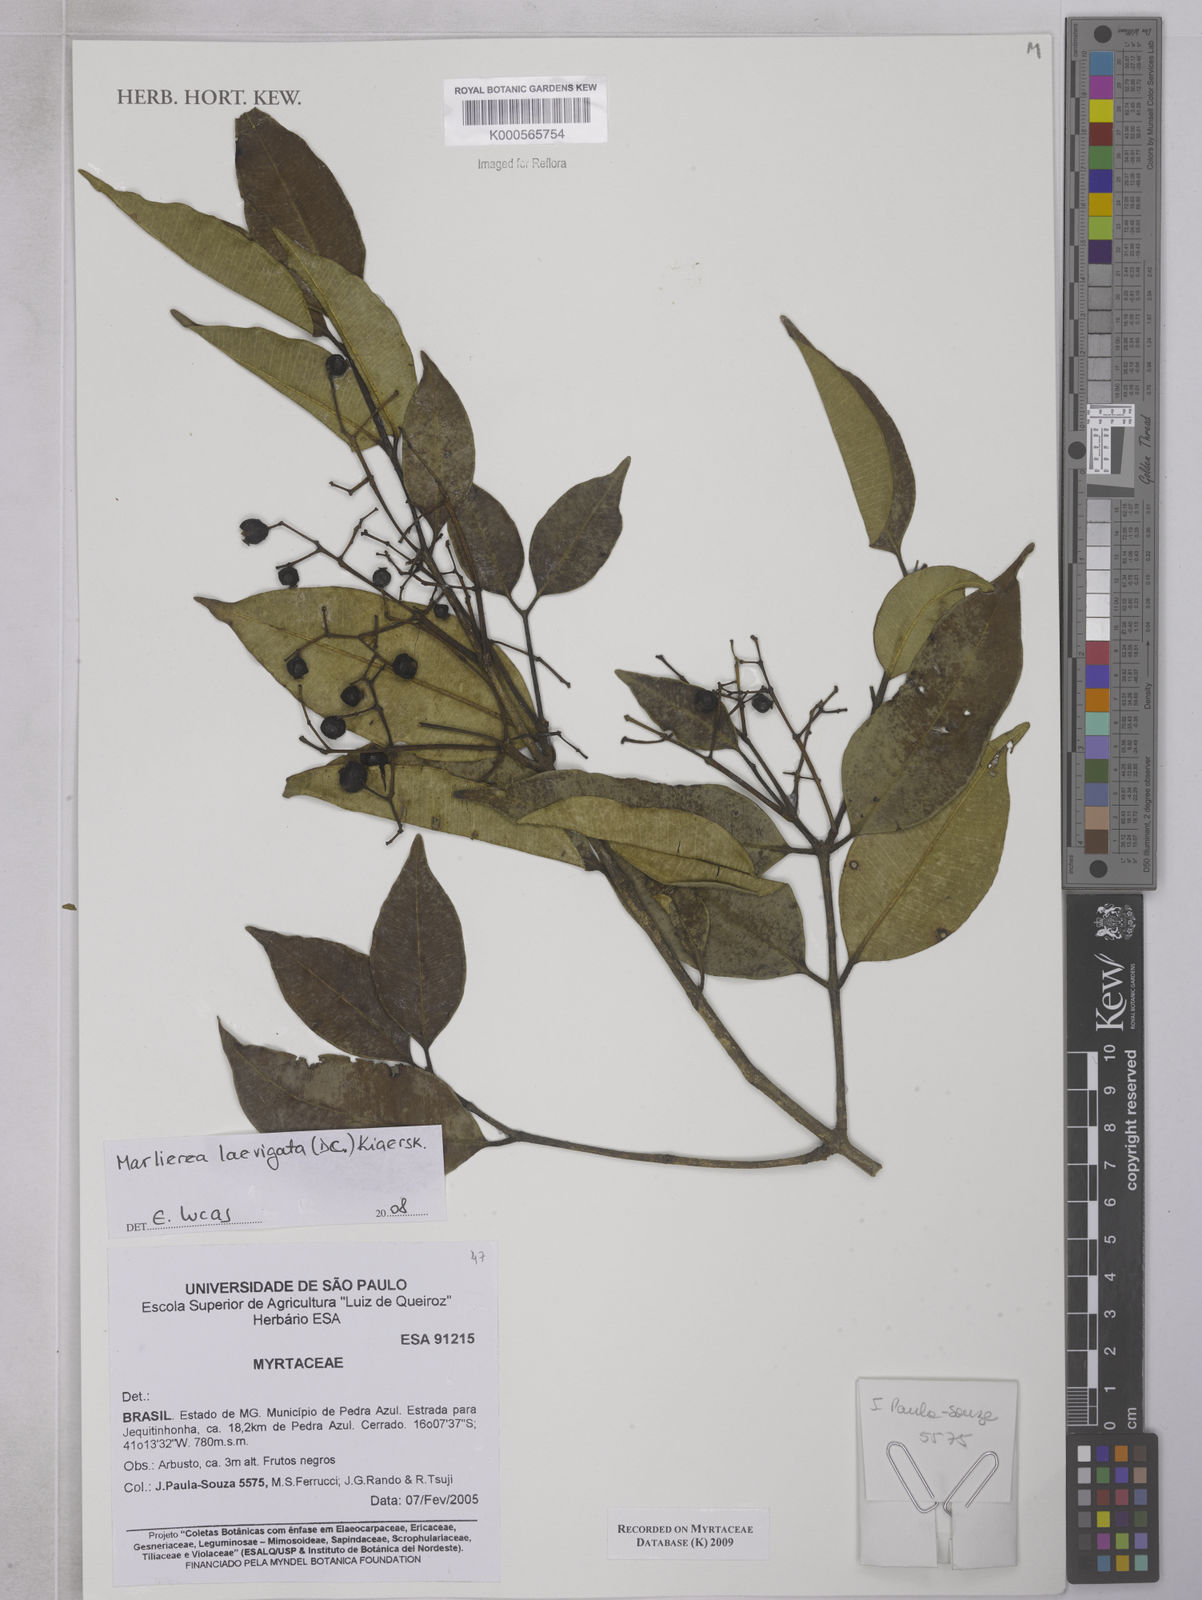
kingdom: Plantae
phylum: Tracheophyta
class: Magnoliopsida
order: Myrtales
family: Myrtaceae
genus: Myrcia
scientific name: Myrcia multipunctata
